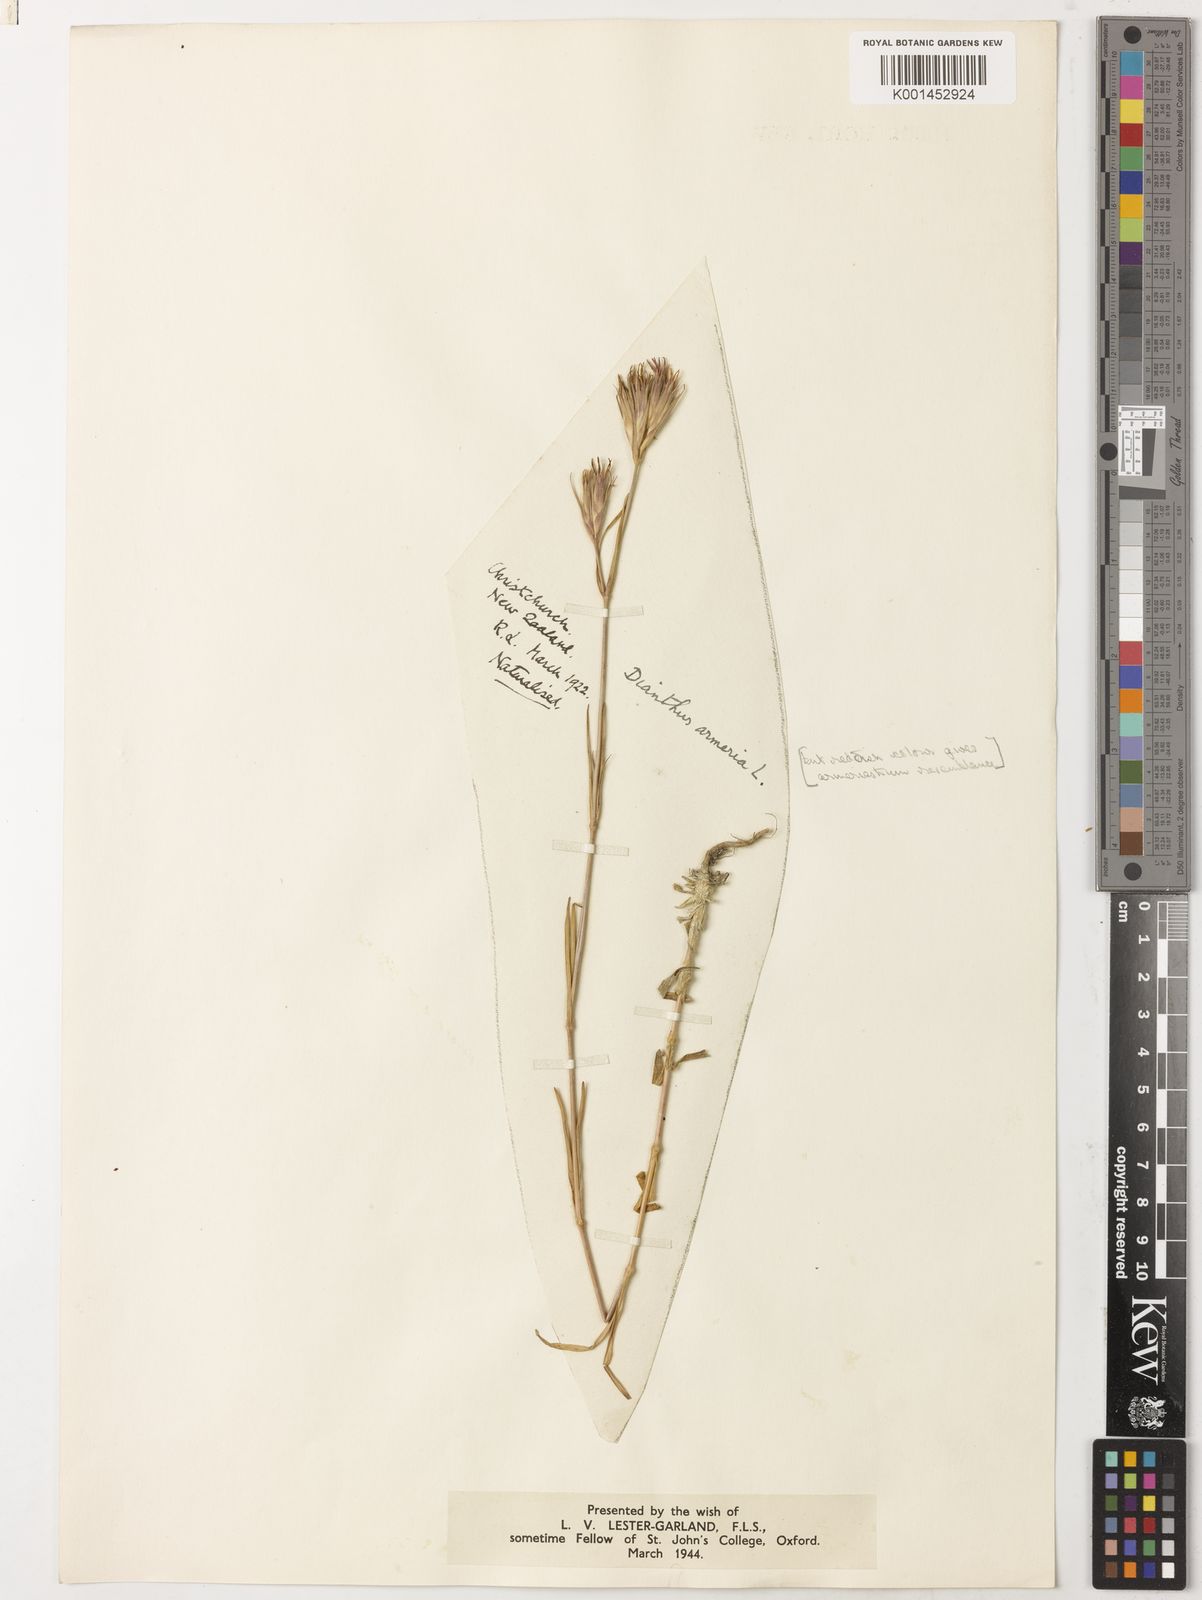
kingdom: Plantae
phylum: Tracheophyta
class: Magnoliopsida
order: Caryophyllales
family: Caryophyllaceae
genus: Dianthus
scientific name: Dianthus armeria
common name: Deptford pink
